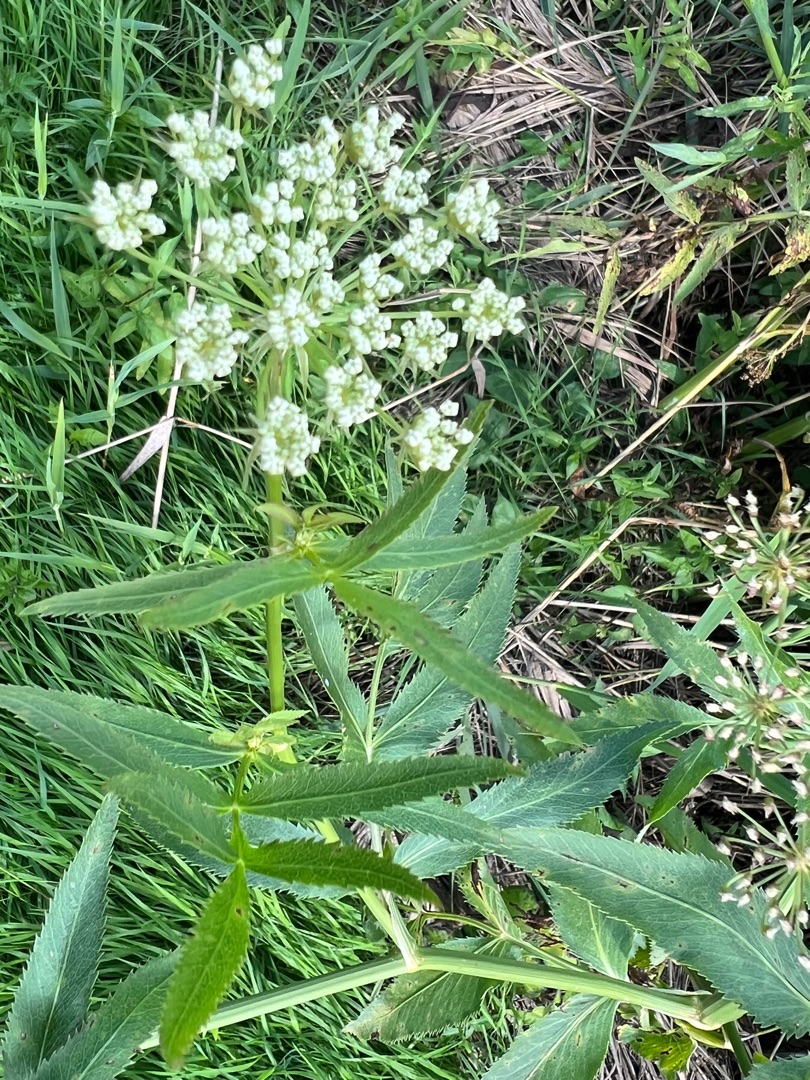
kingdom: Plantae
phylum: Tracheophyta
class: Magnoliopsida
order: Apiales
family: Apiaceae
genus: Sium
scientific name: Sium latifolium
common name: Bredbladet mærke
